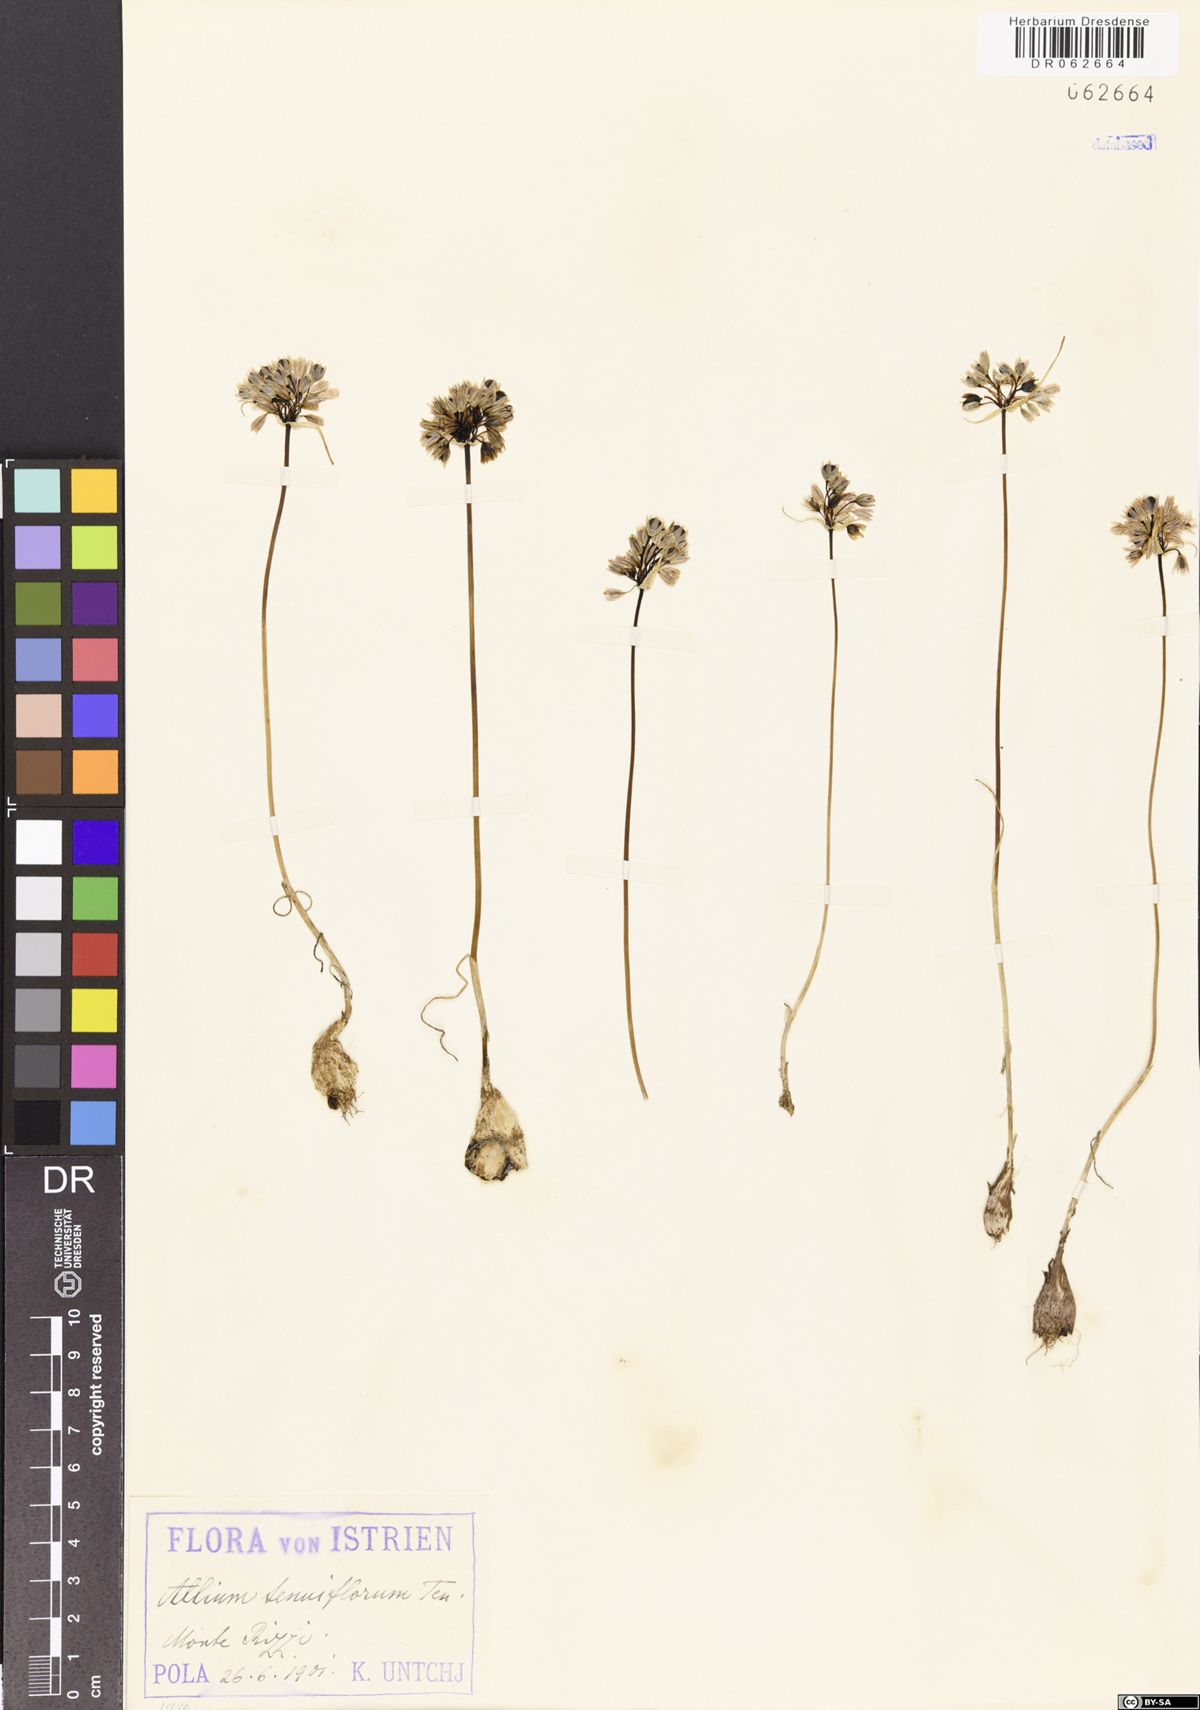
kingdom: Plantae
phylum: Tracheophyta
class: Liliopsida
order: Asparagales
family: Amaryllidaceae
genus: Allium
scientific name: Allium tenuiflorum
